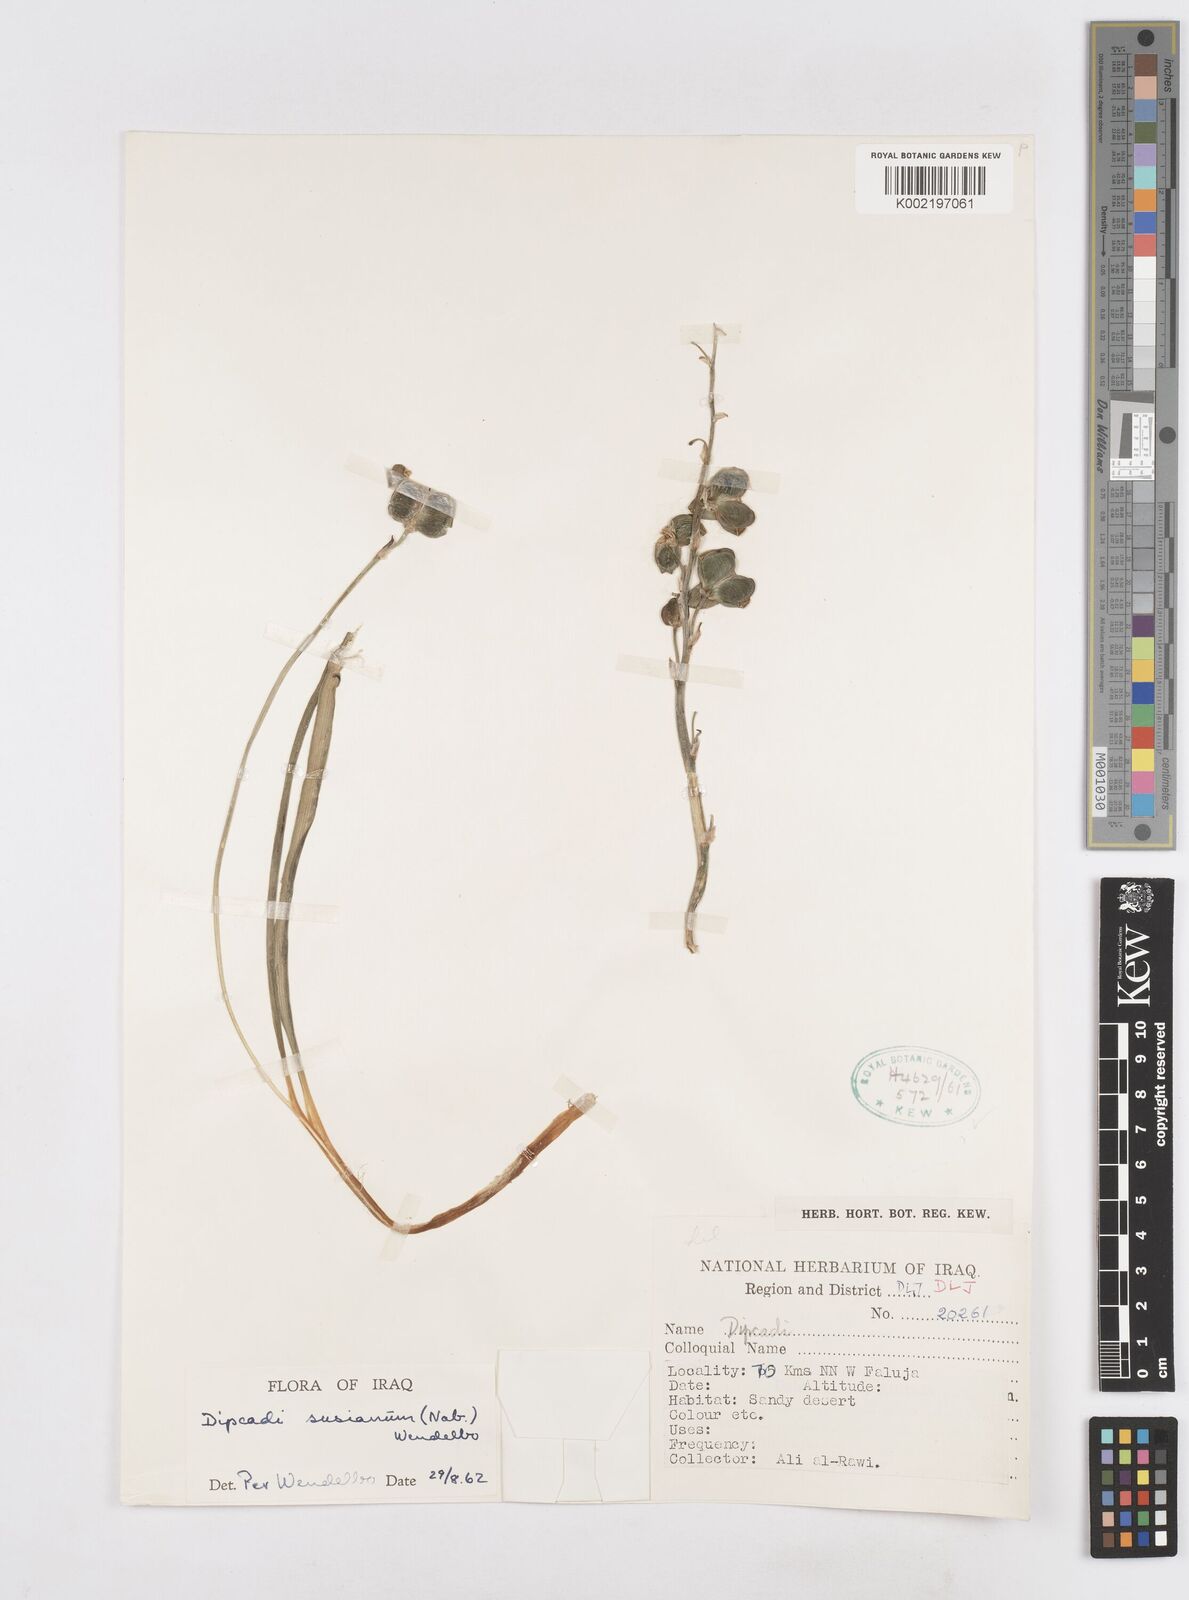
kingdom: Plantae
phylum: Tracheophyta
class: Liliopsida
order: Asparagales
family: Asparagaceae
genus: Dipcadi
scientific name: Dipcadi susianum
